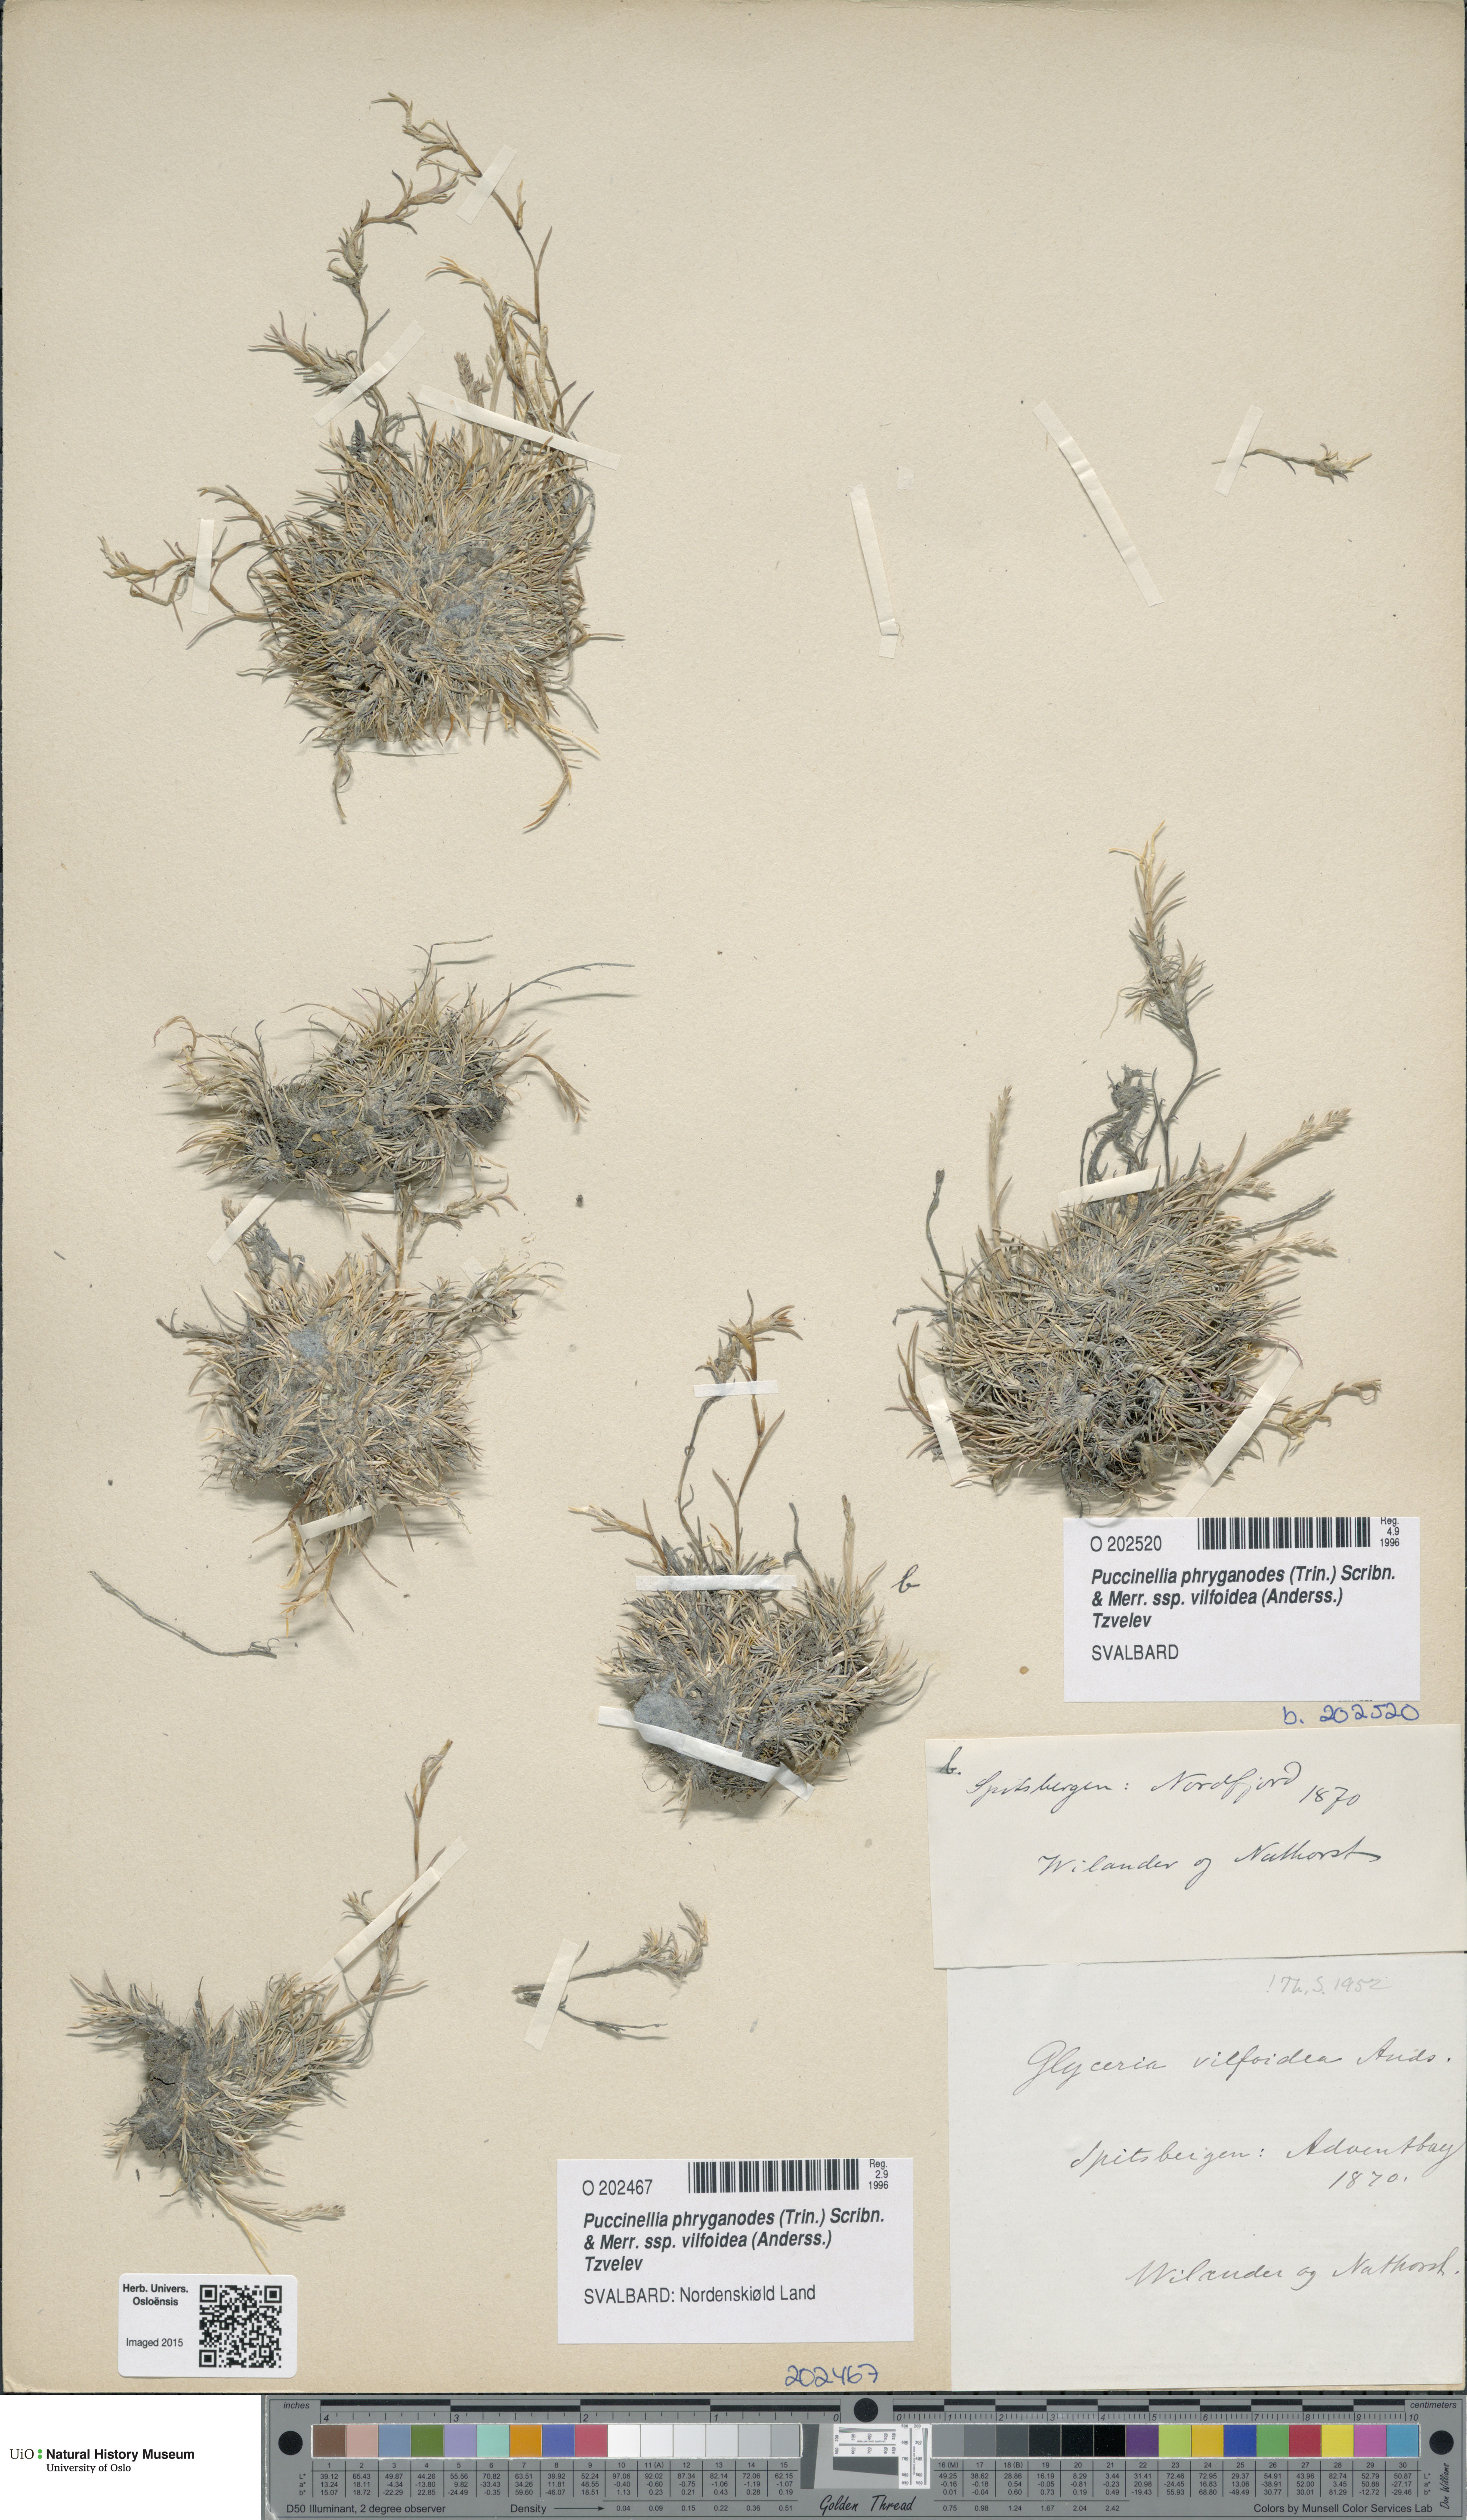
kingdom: Plantae
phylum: Tracheophyta
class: Liliopsida
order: Poales
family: Poaceae
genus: Puccinellia
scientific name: Puccinellia phryganodes
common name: Creeping alkaligrass
